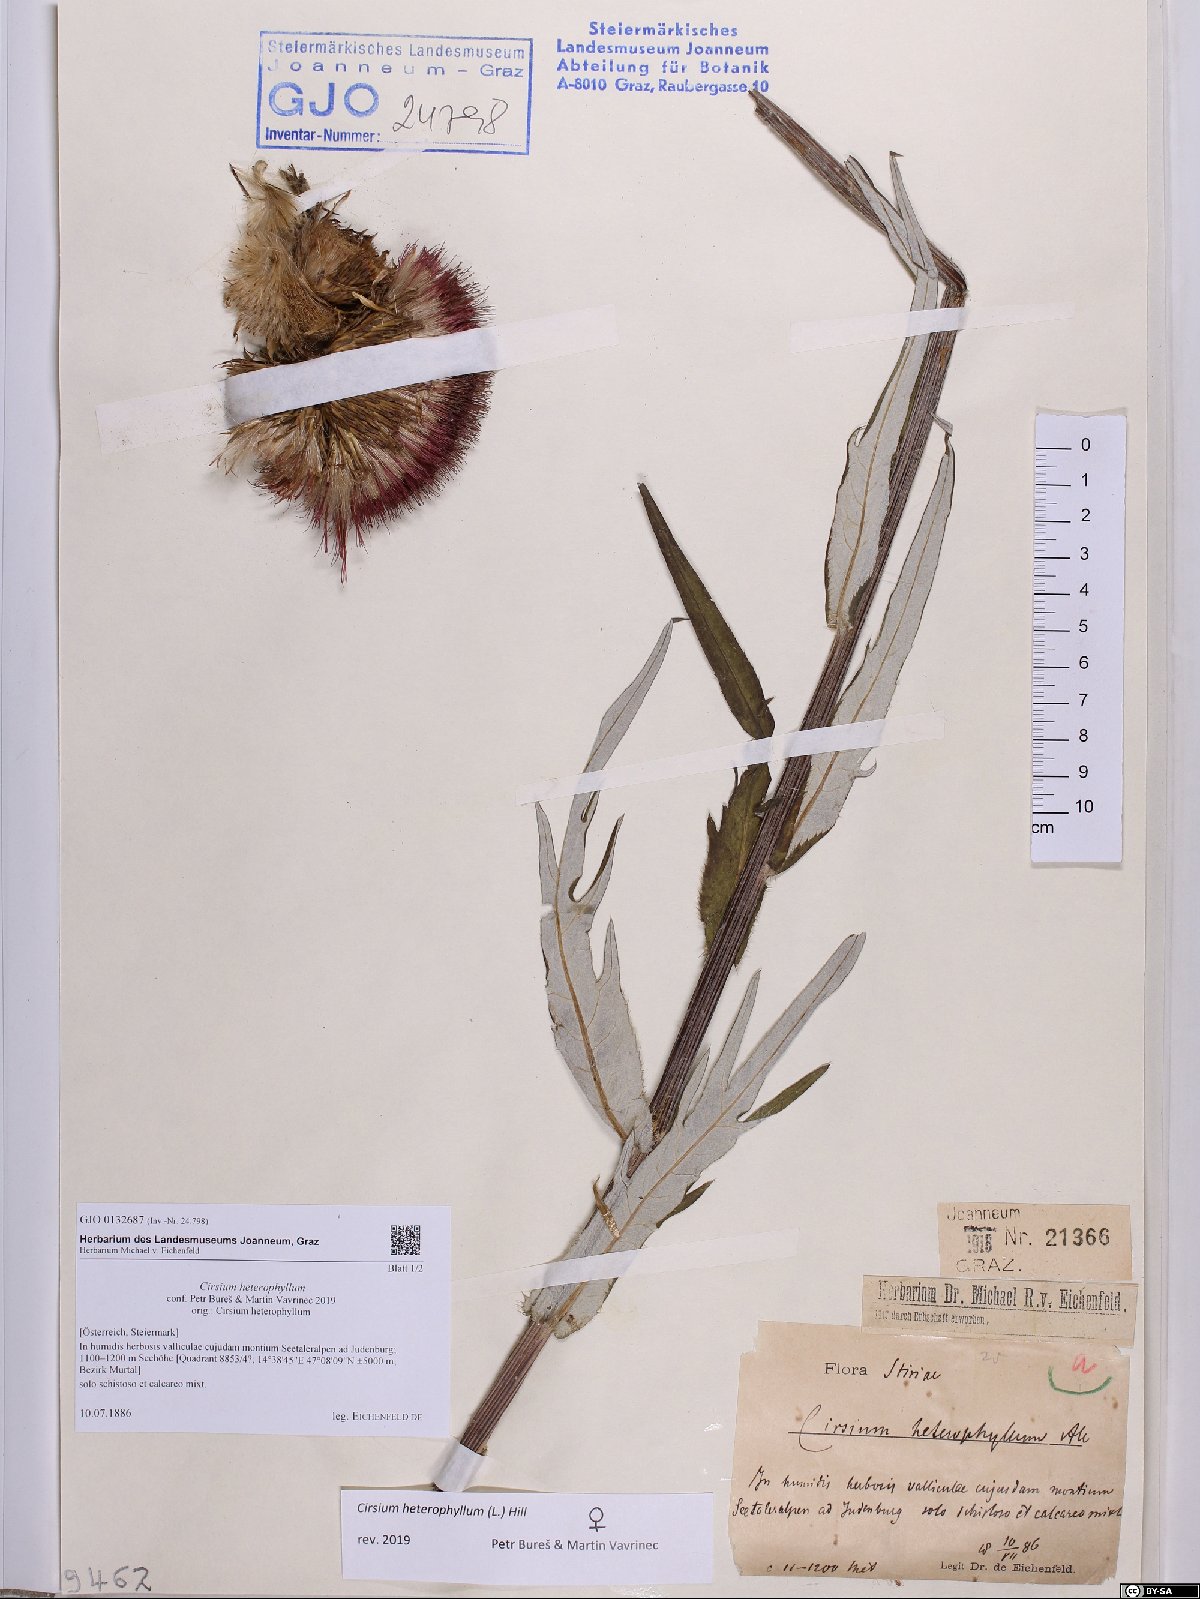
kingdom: Plantae
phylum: Tracheophyta
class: Magnoliopsida
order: Asterales
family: Asteraceae
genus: Cirsium
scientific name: Cirsium heterophyllum
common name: Melancholy thistle
